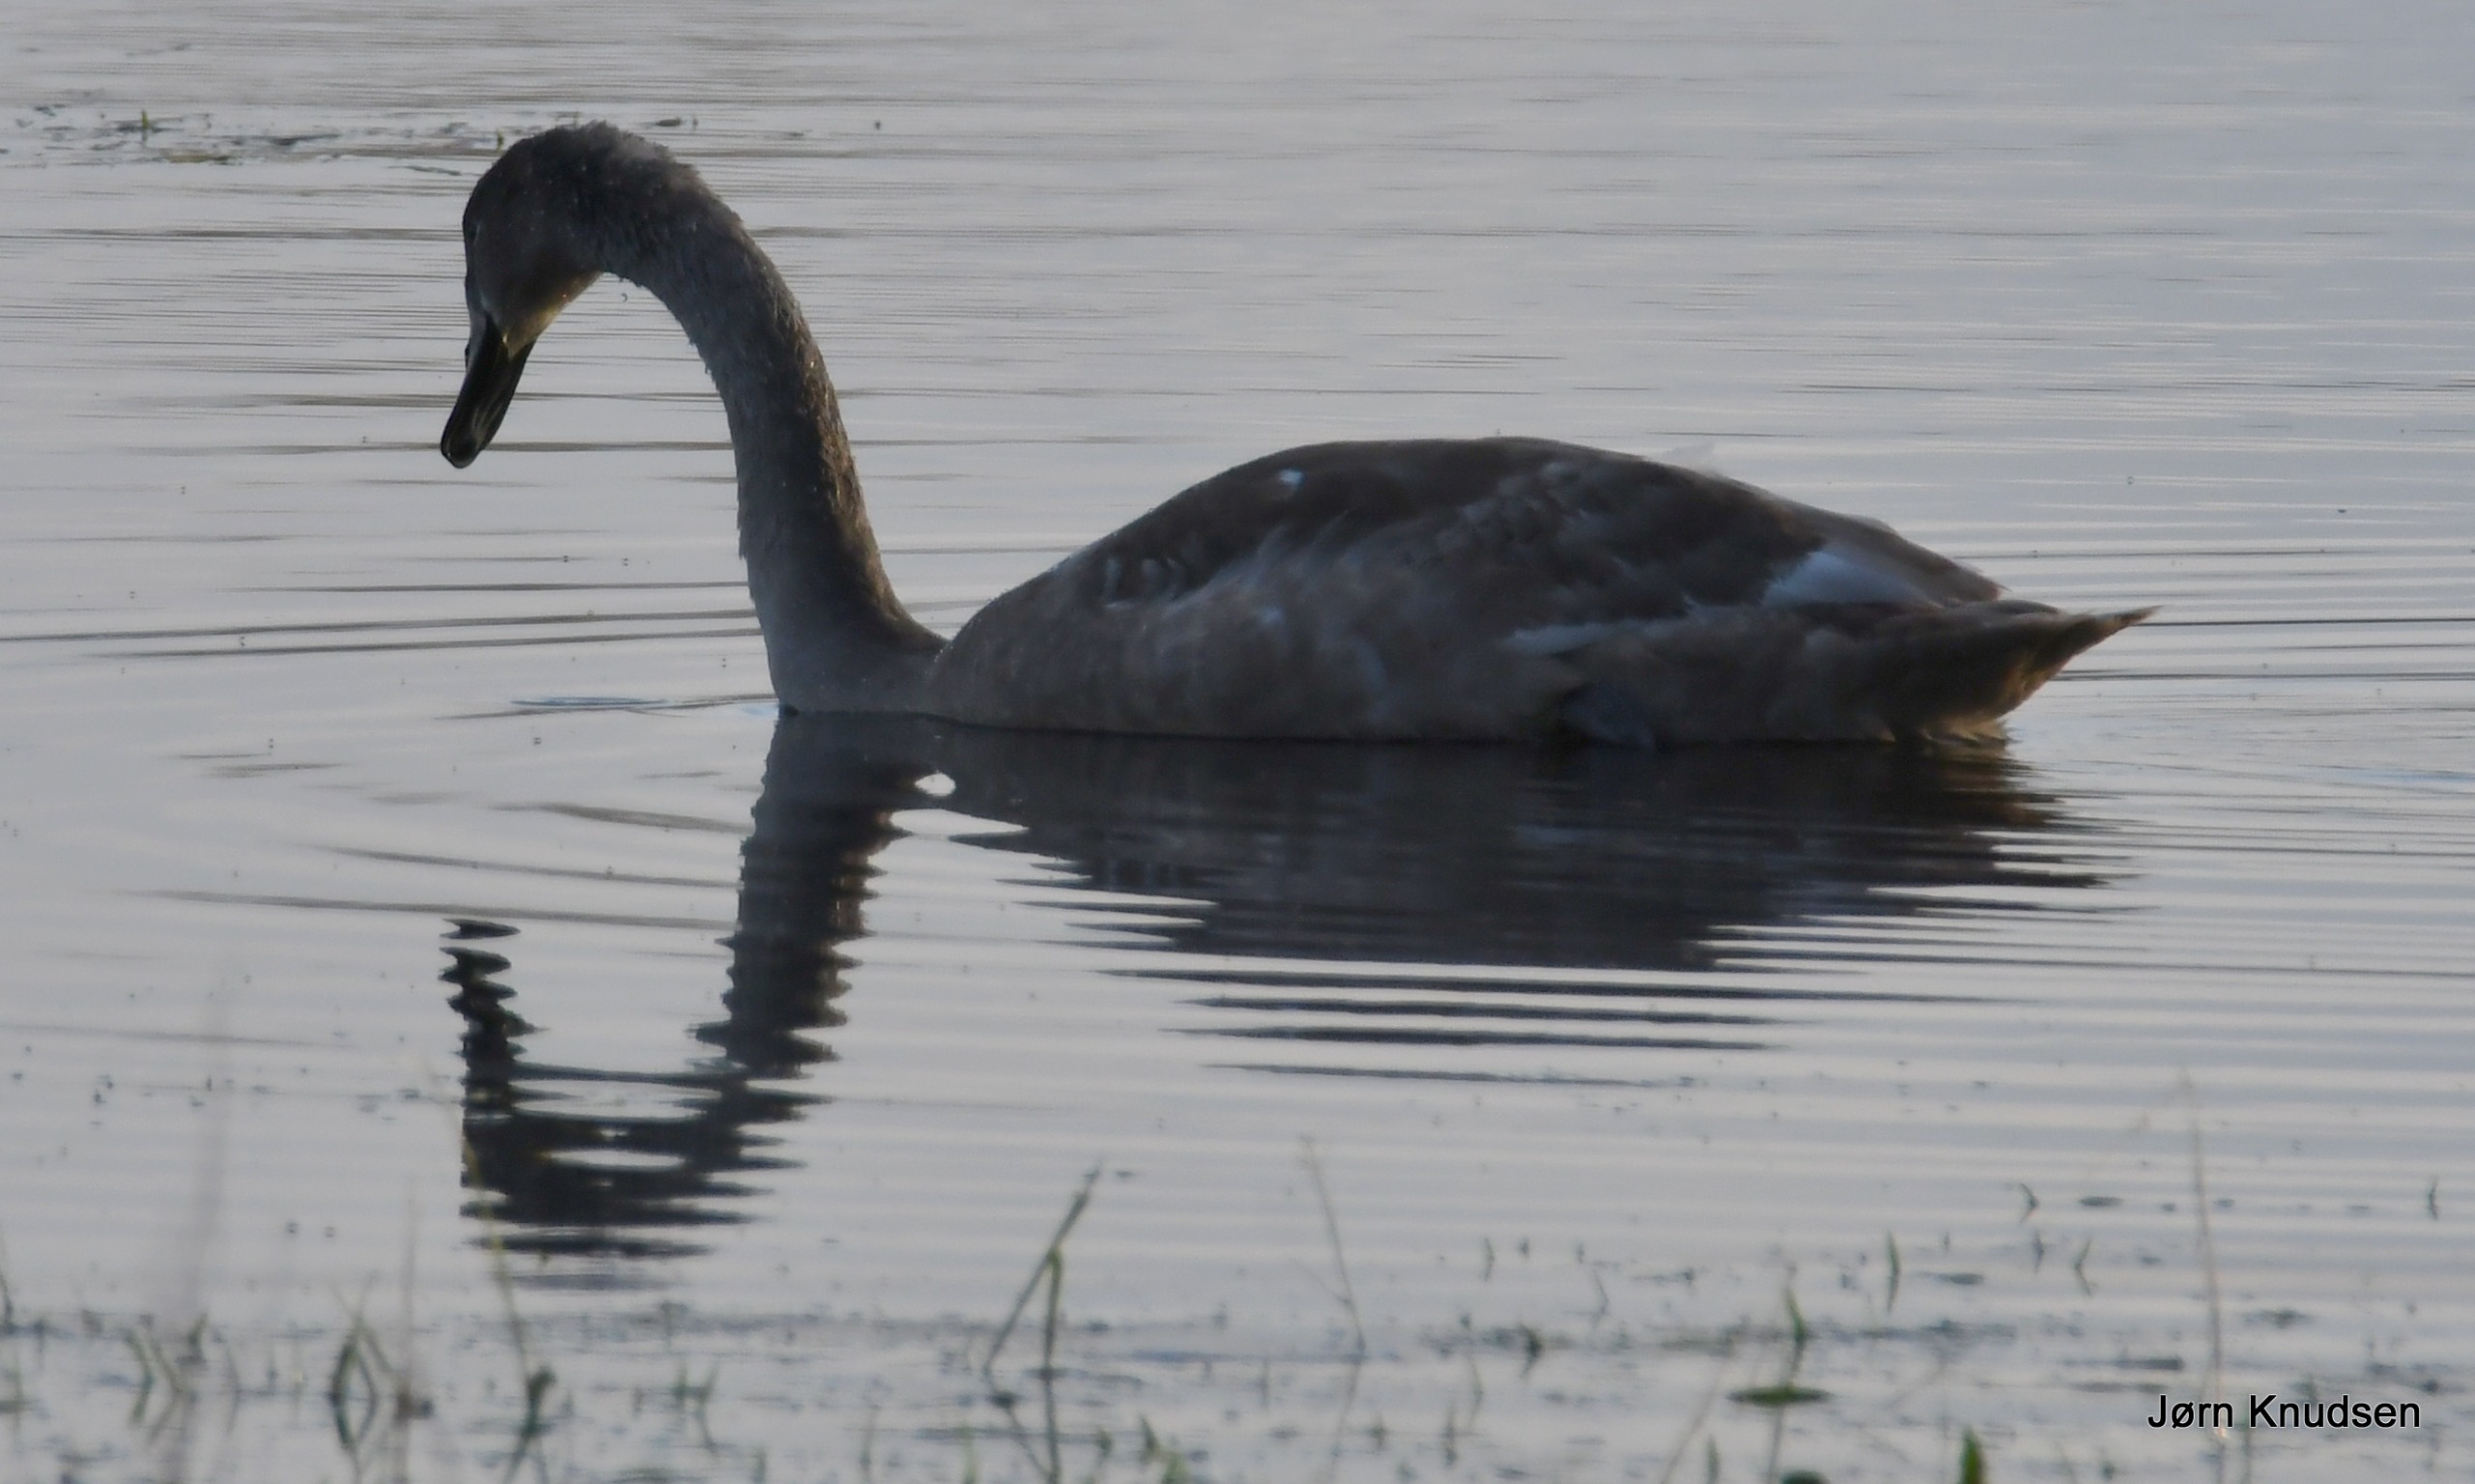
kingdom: Animalia
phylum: Chordata
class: Aves
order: Anseriformes
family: Anatidae
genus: Cygnus
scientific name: Cygnus olor
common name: Knopsvane
